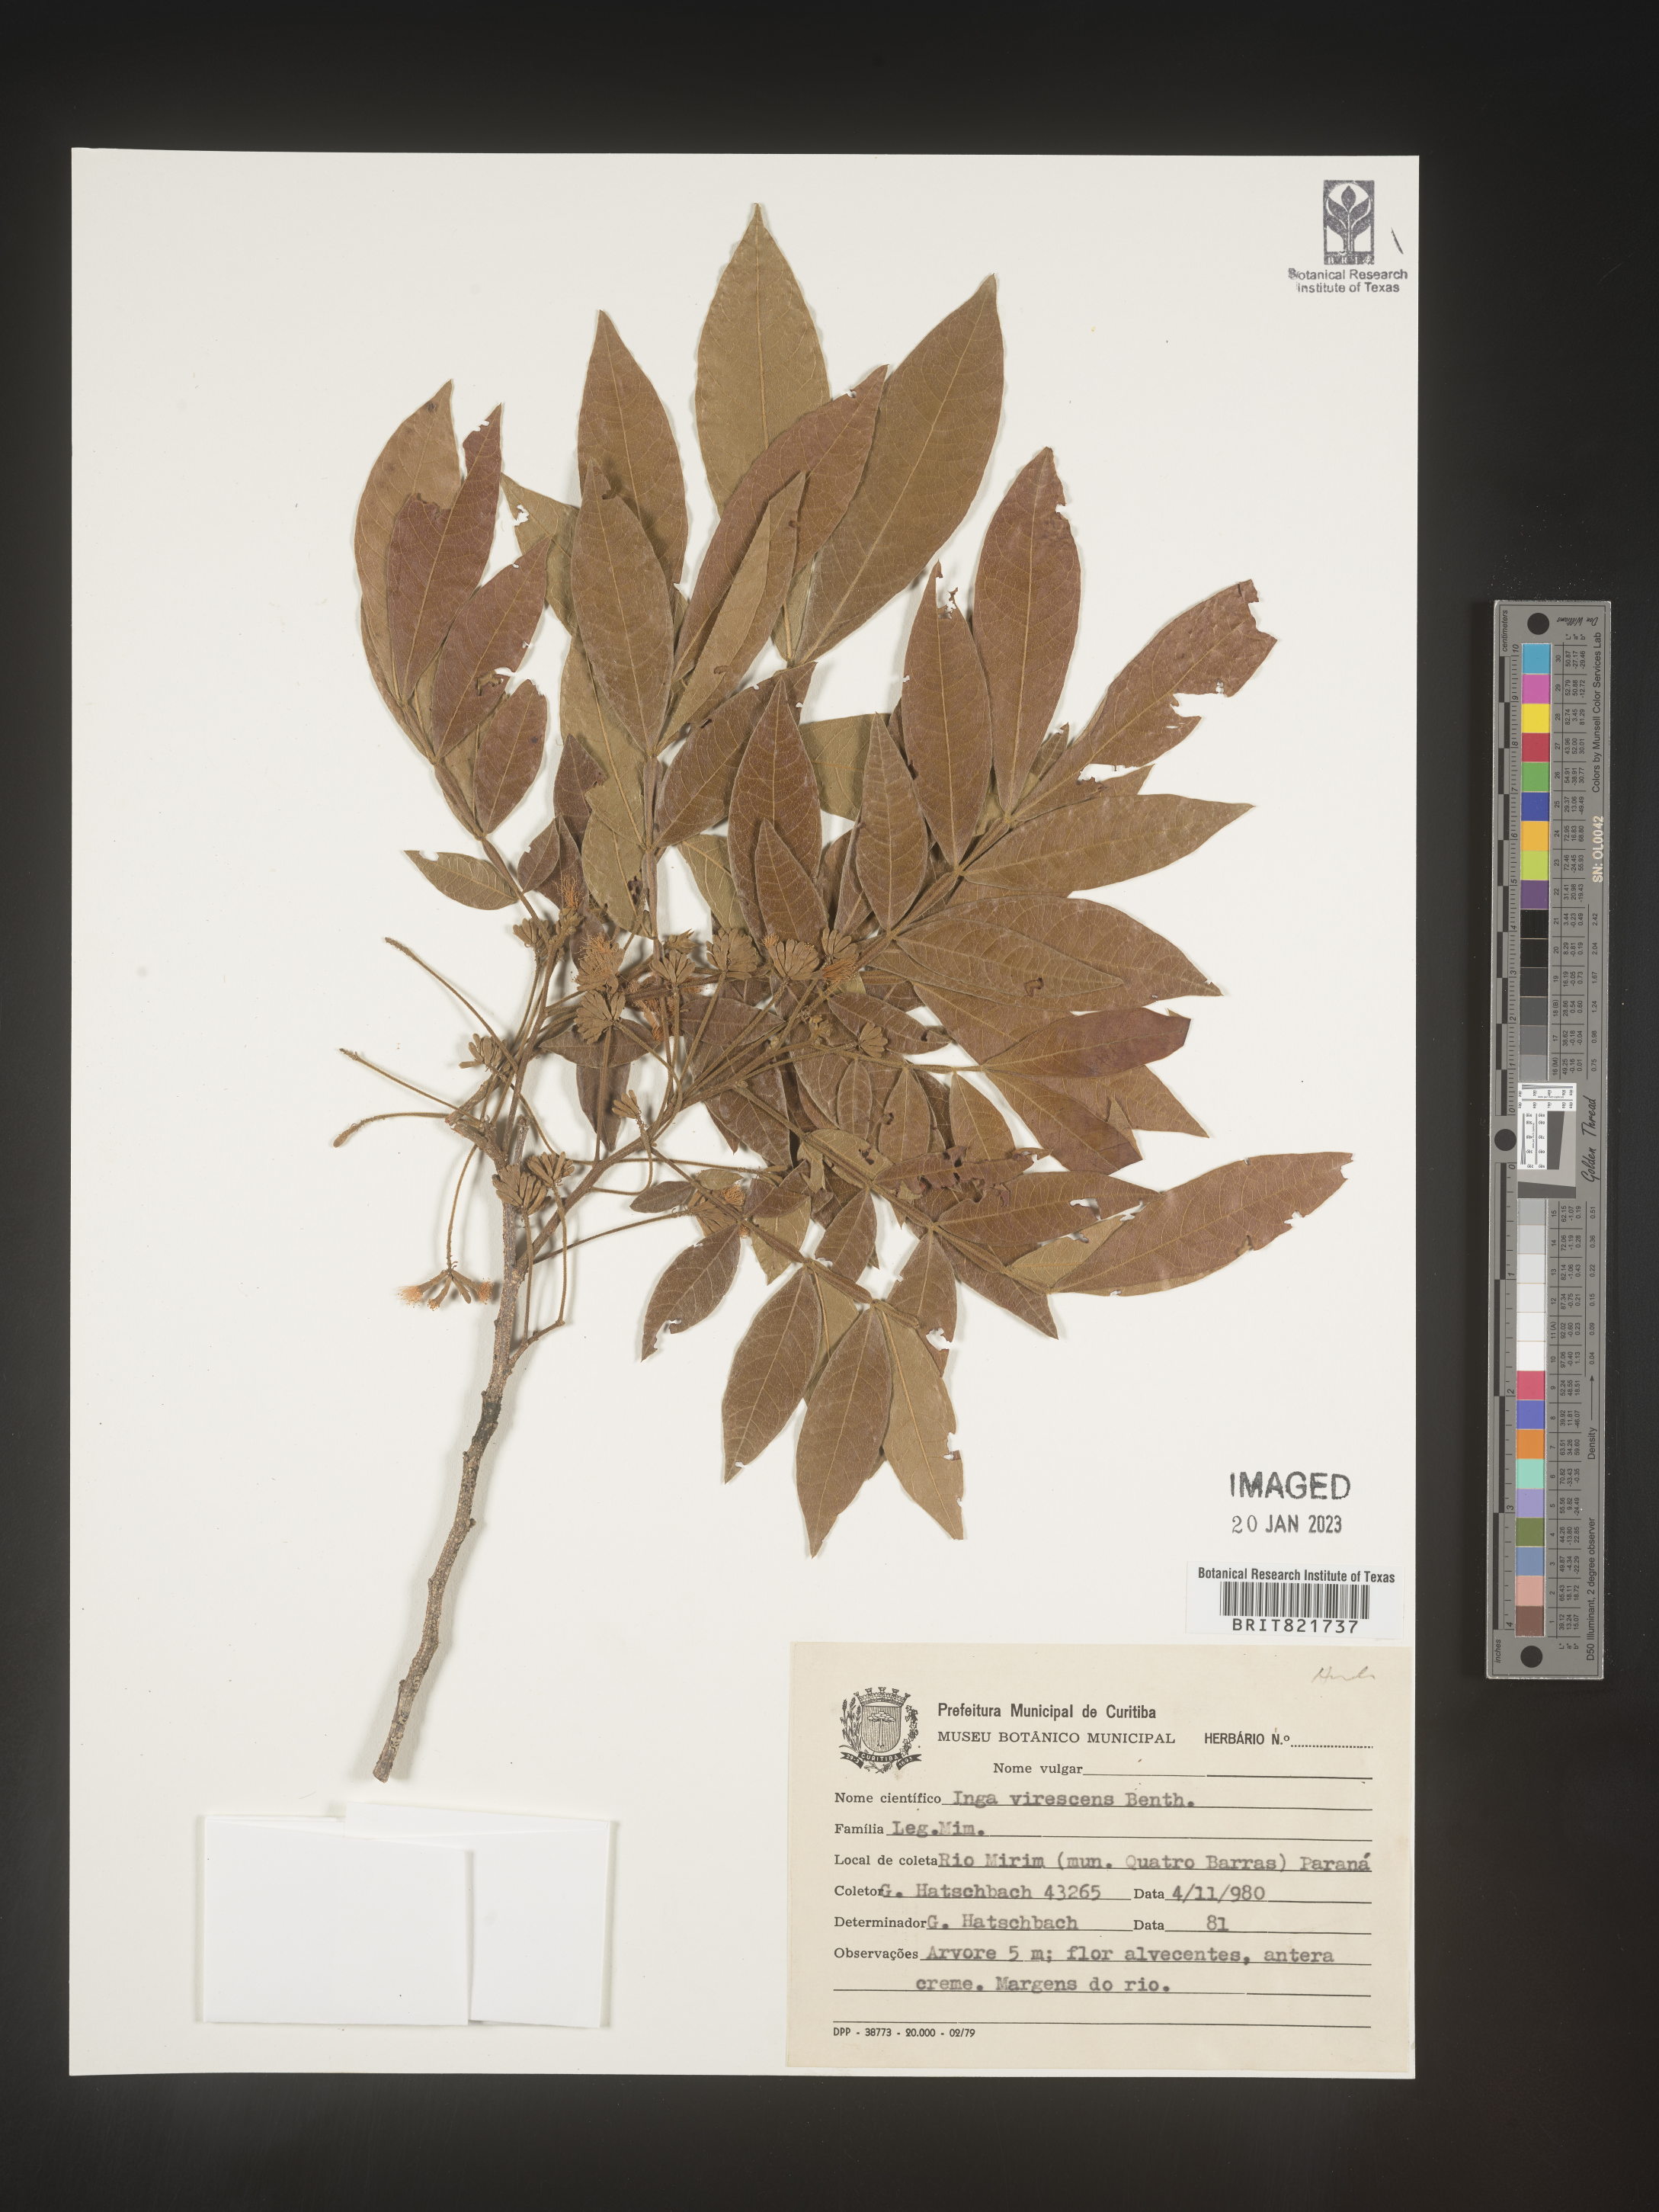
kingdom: Plantae
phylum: Tracheophyta
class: Magnoliopsida
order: Fabales
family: Fabaceae
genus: Inga
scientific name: Inga
